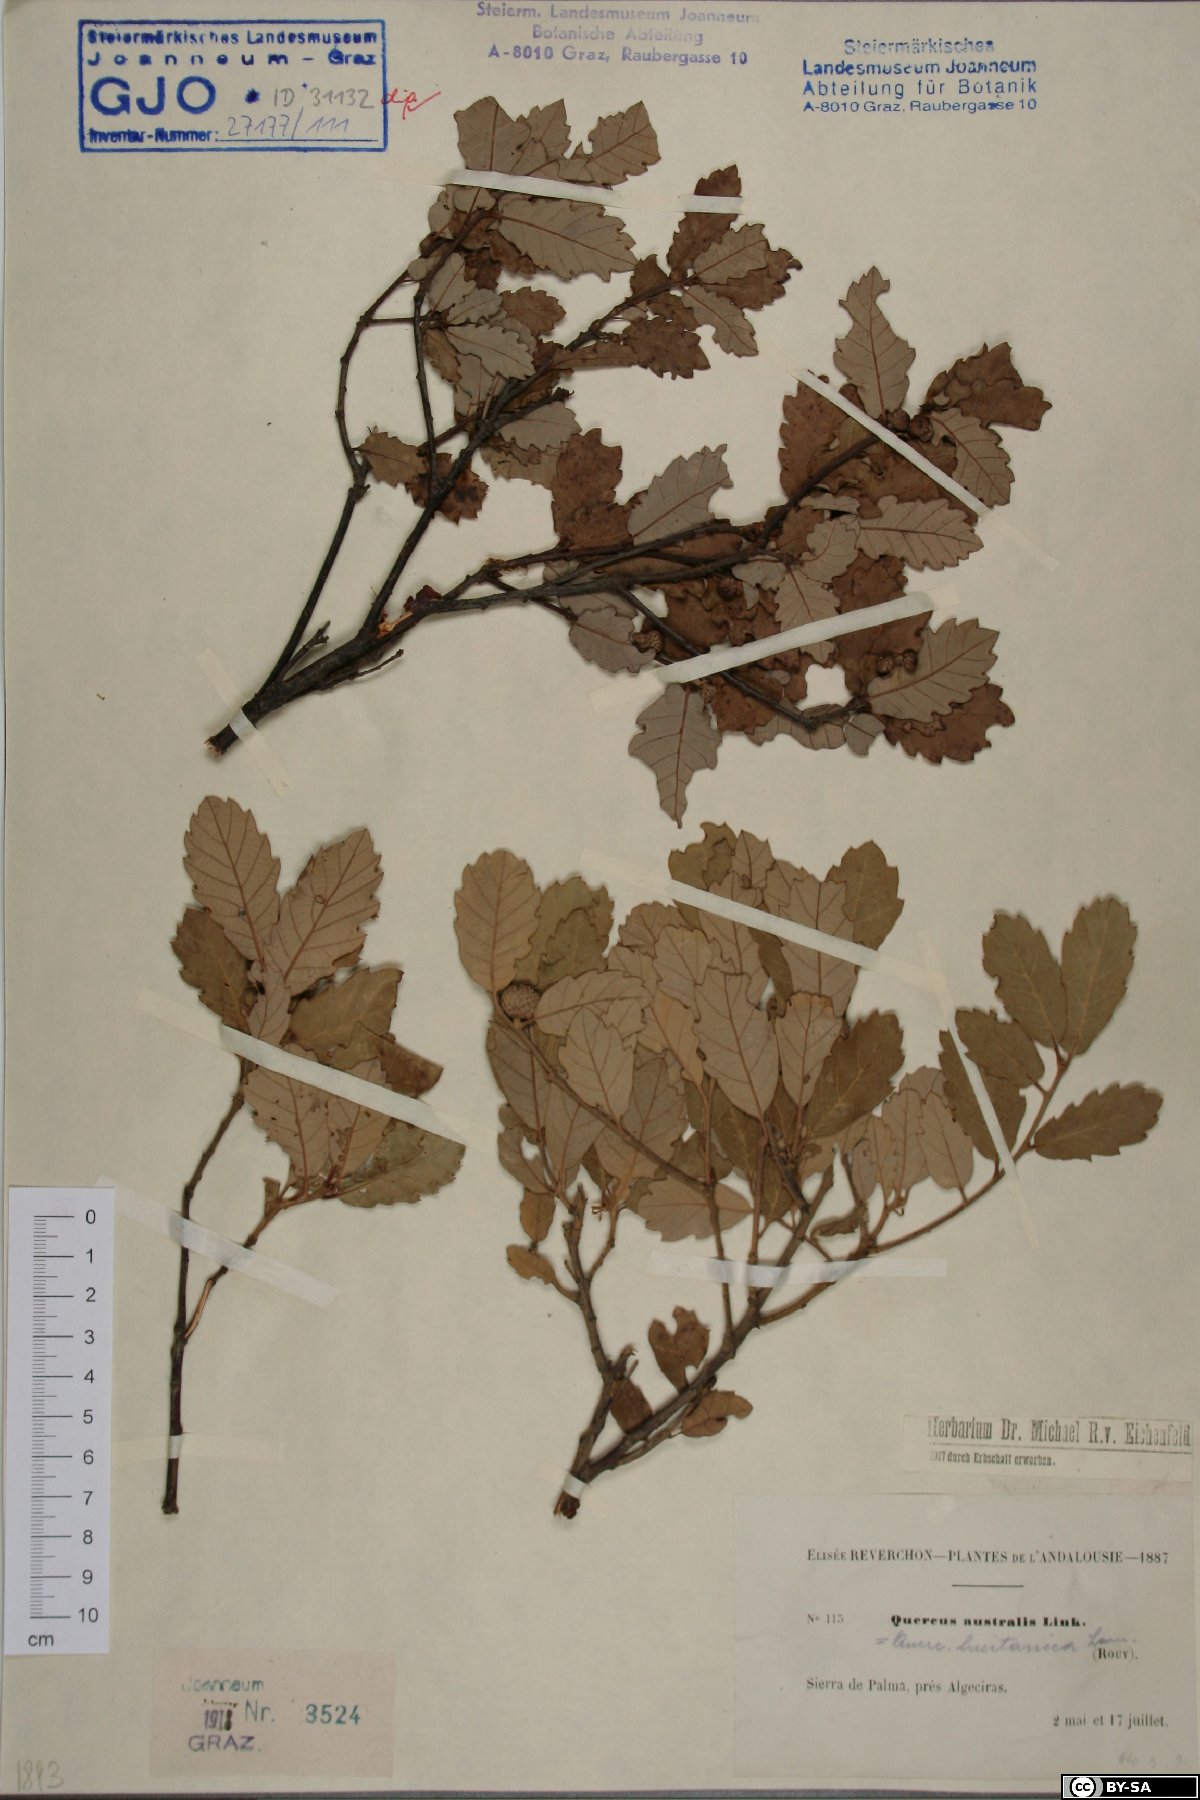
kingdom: Plantae
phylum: Tracheophyta
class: Magnoliopsida
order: Fagales
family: Fagaceae
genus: Quercus
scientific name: Quercus lusitanica
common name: Scrub gall oak
